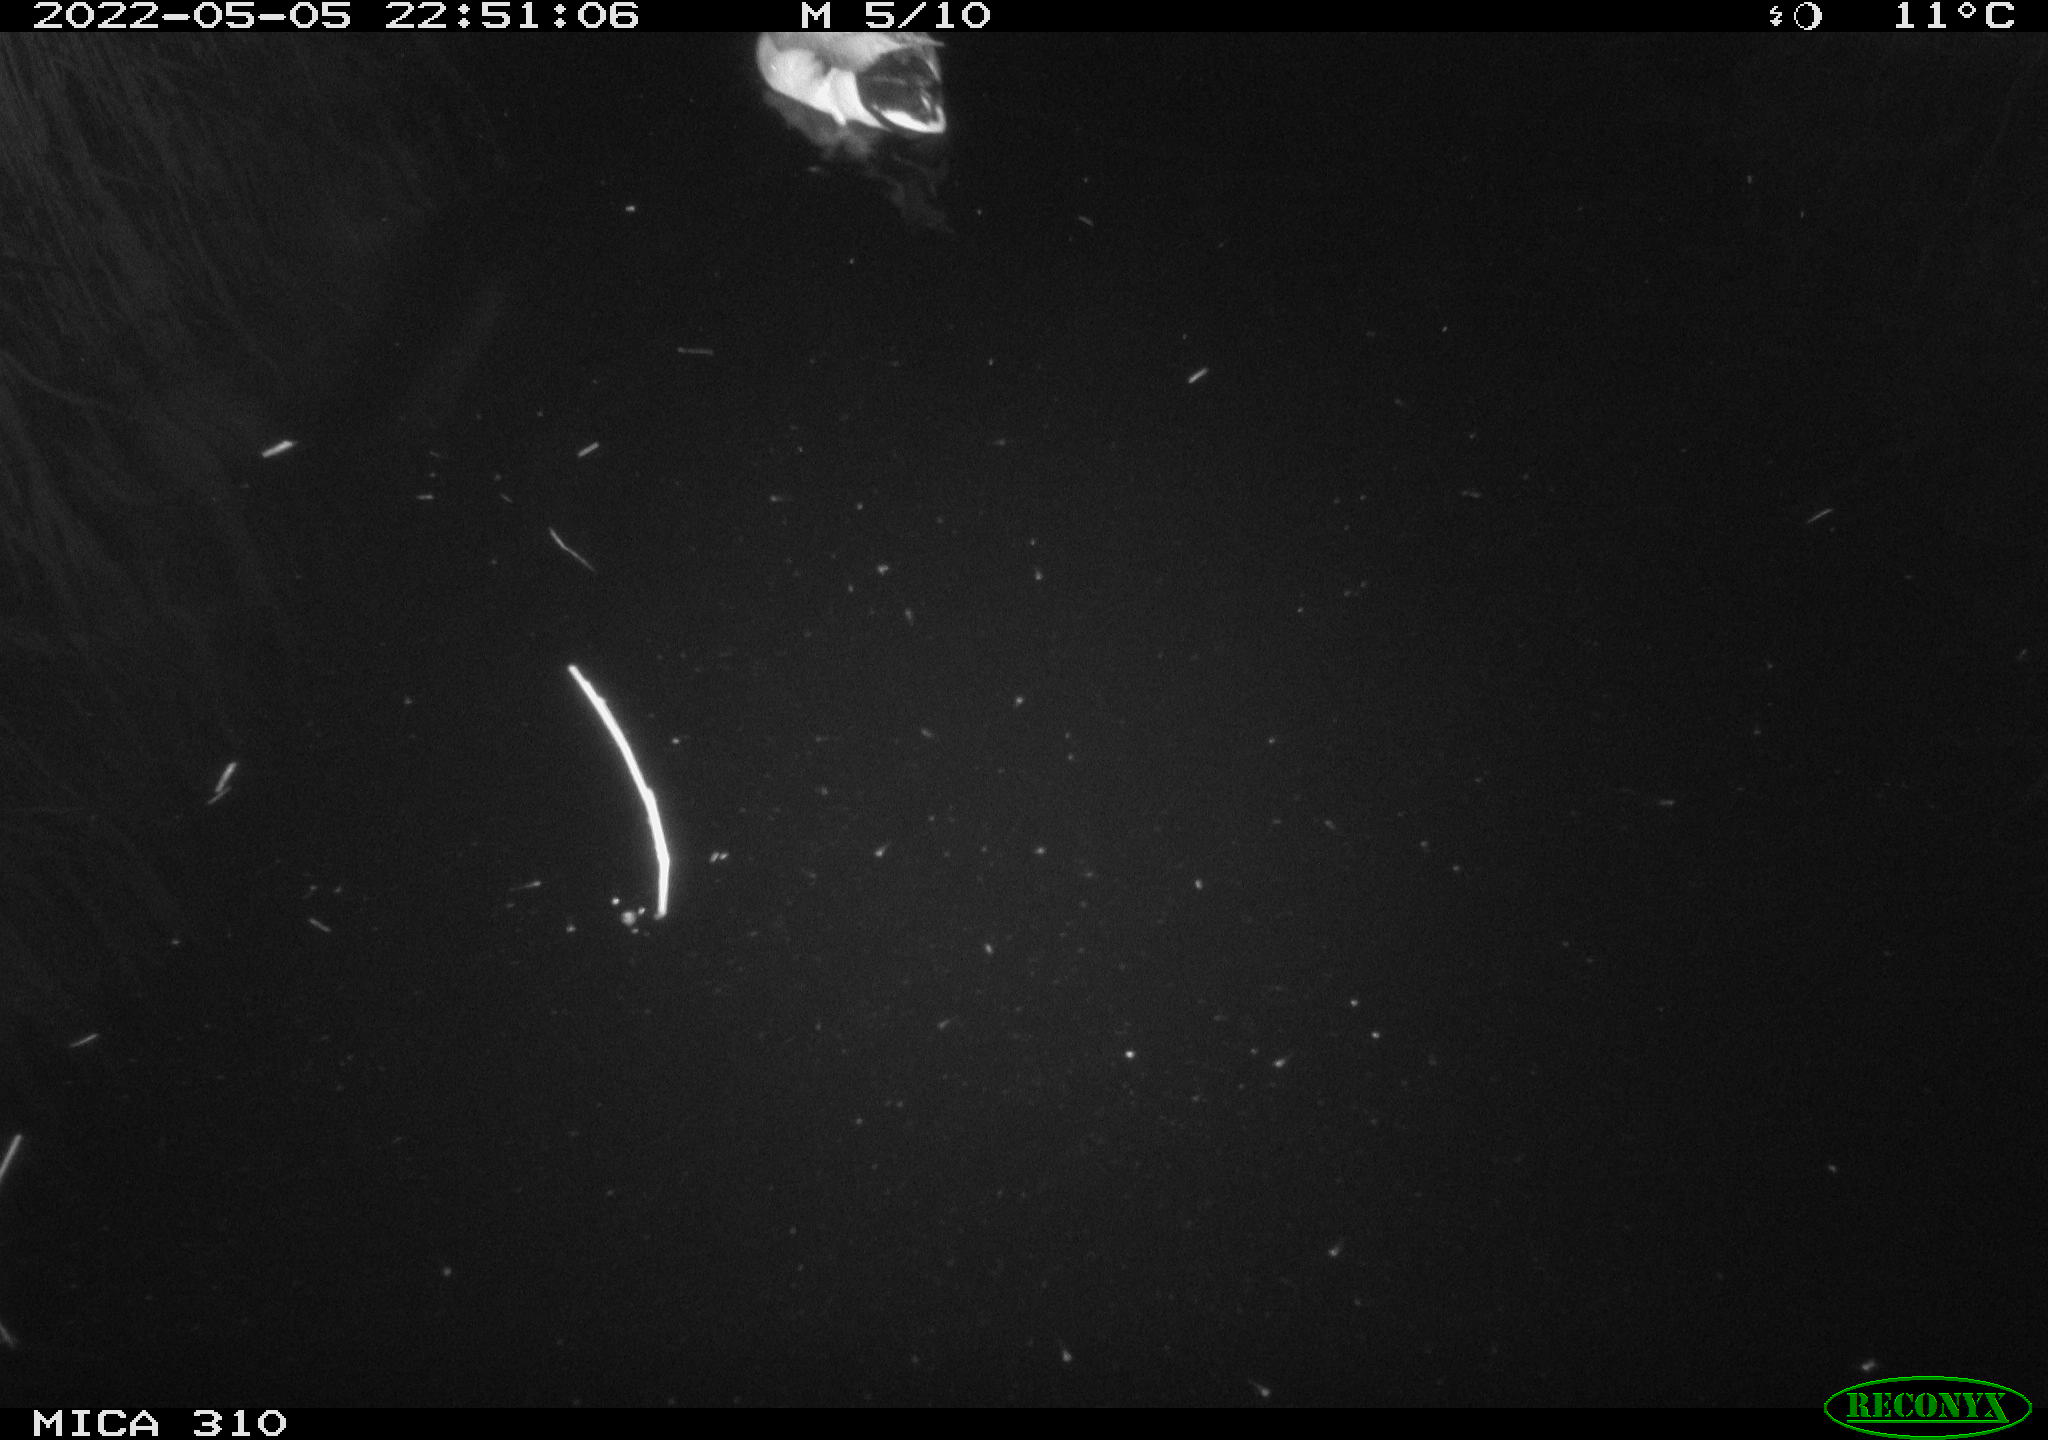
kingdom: Animalia
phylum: Chordata
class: Aves
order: Anseriformes
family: Anatidae
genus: Anas
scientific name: Anas platyrhynchos
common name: Mallard
